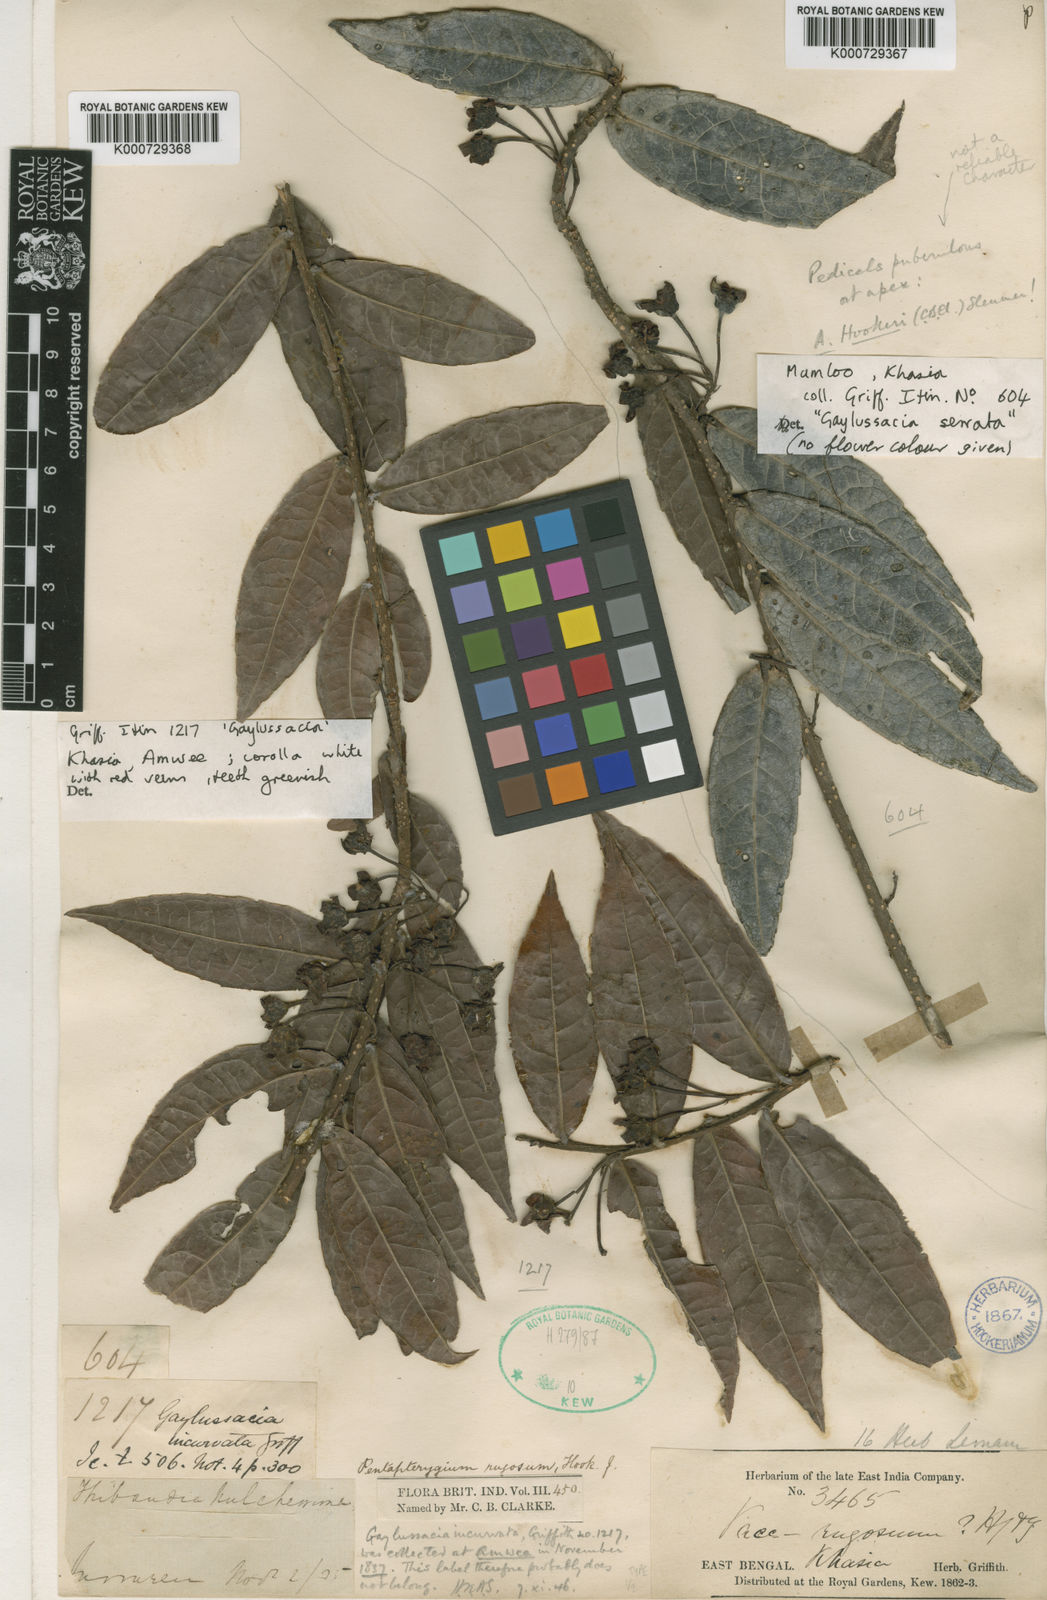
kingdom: Plantae
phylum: Tracheophyta
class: Magnoliopsida
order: Ericales
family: Ericaceae
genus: Agapetes
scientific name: Agapetes incurvata
